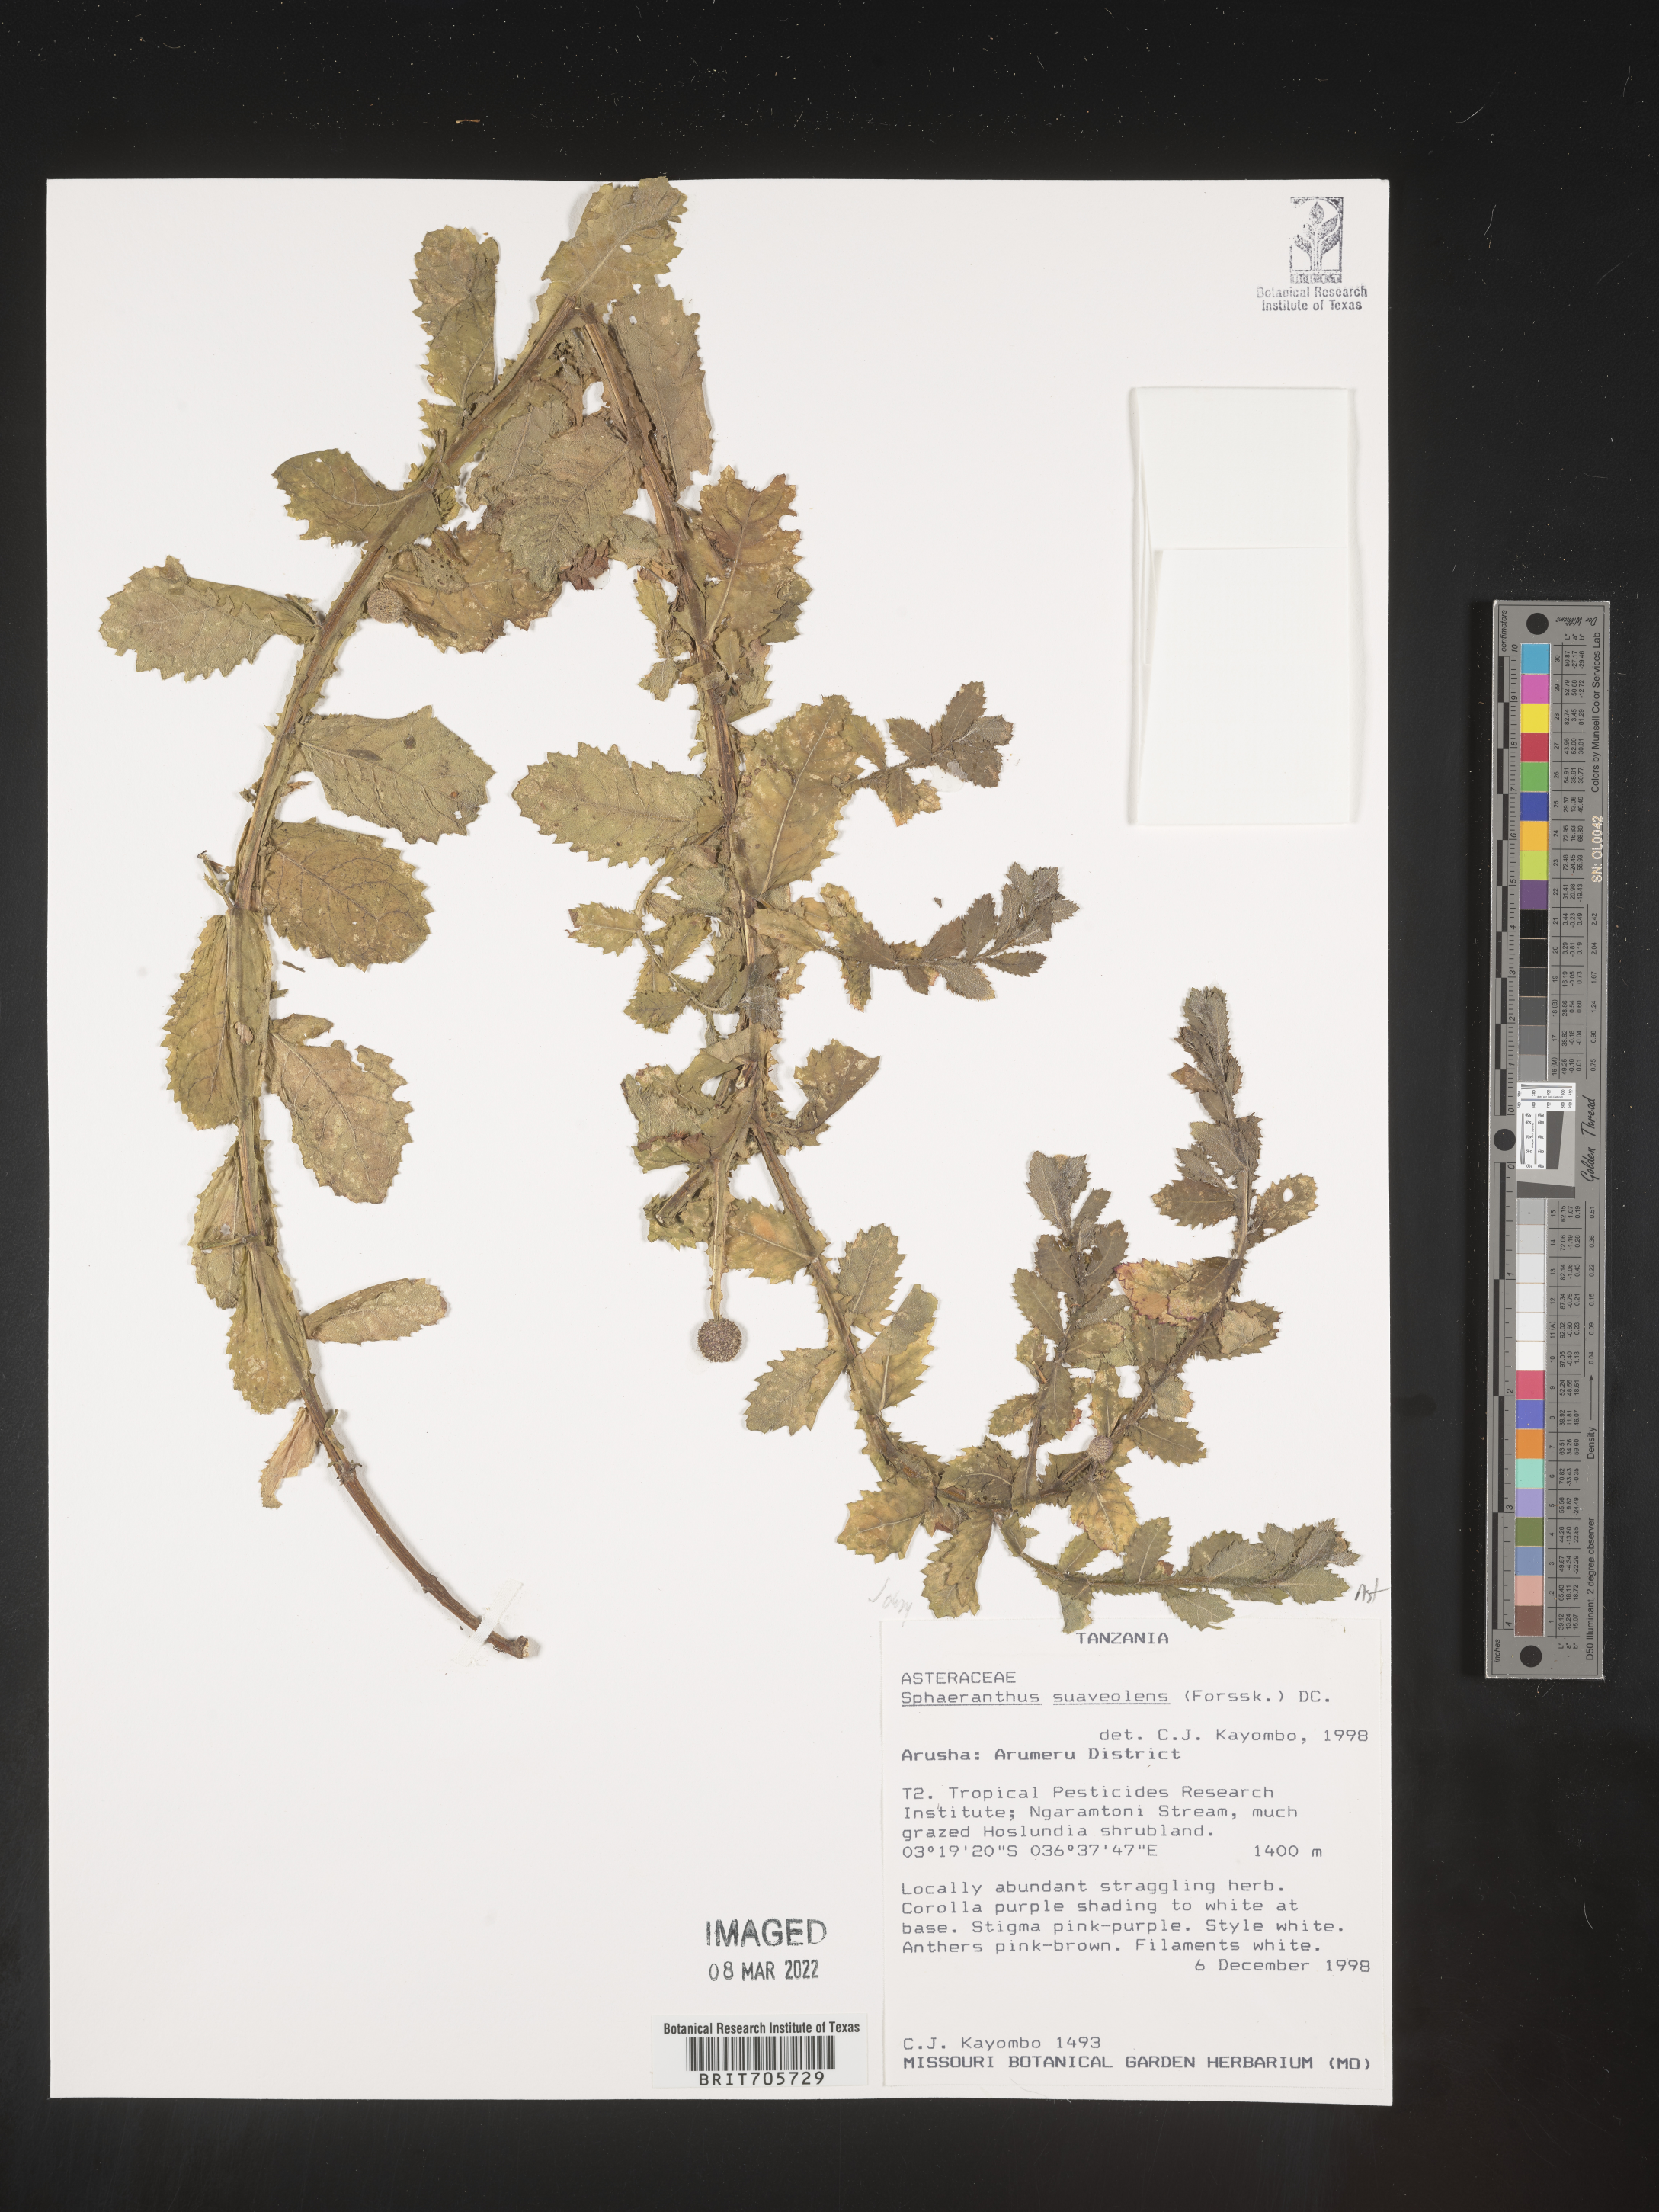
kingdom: Plantae
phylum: Tracheophyta
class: Magnoliopsida
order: Asterales
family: Asteraceae
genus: Sphaeranthus
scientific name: Sphaeranthus
